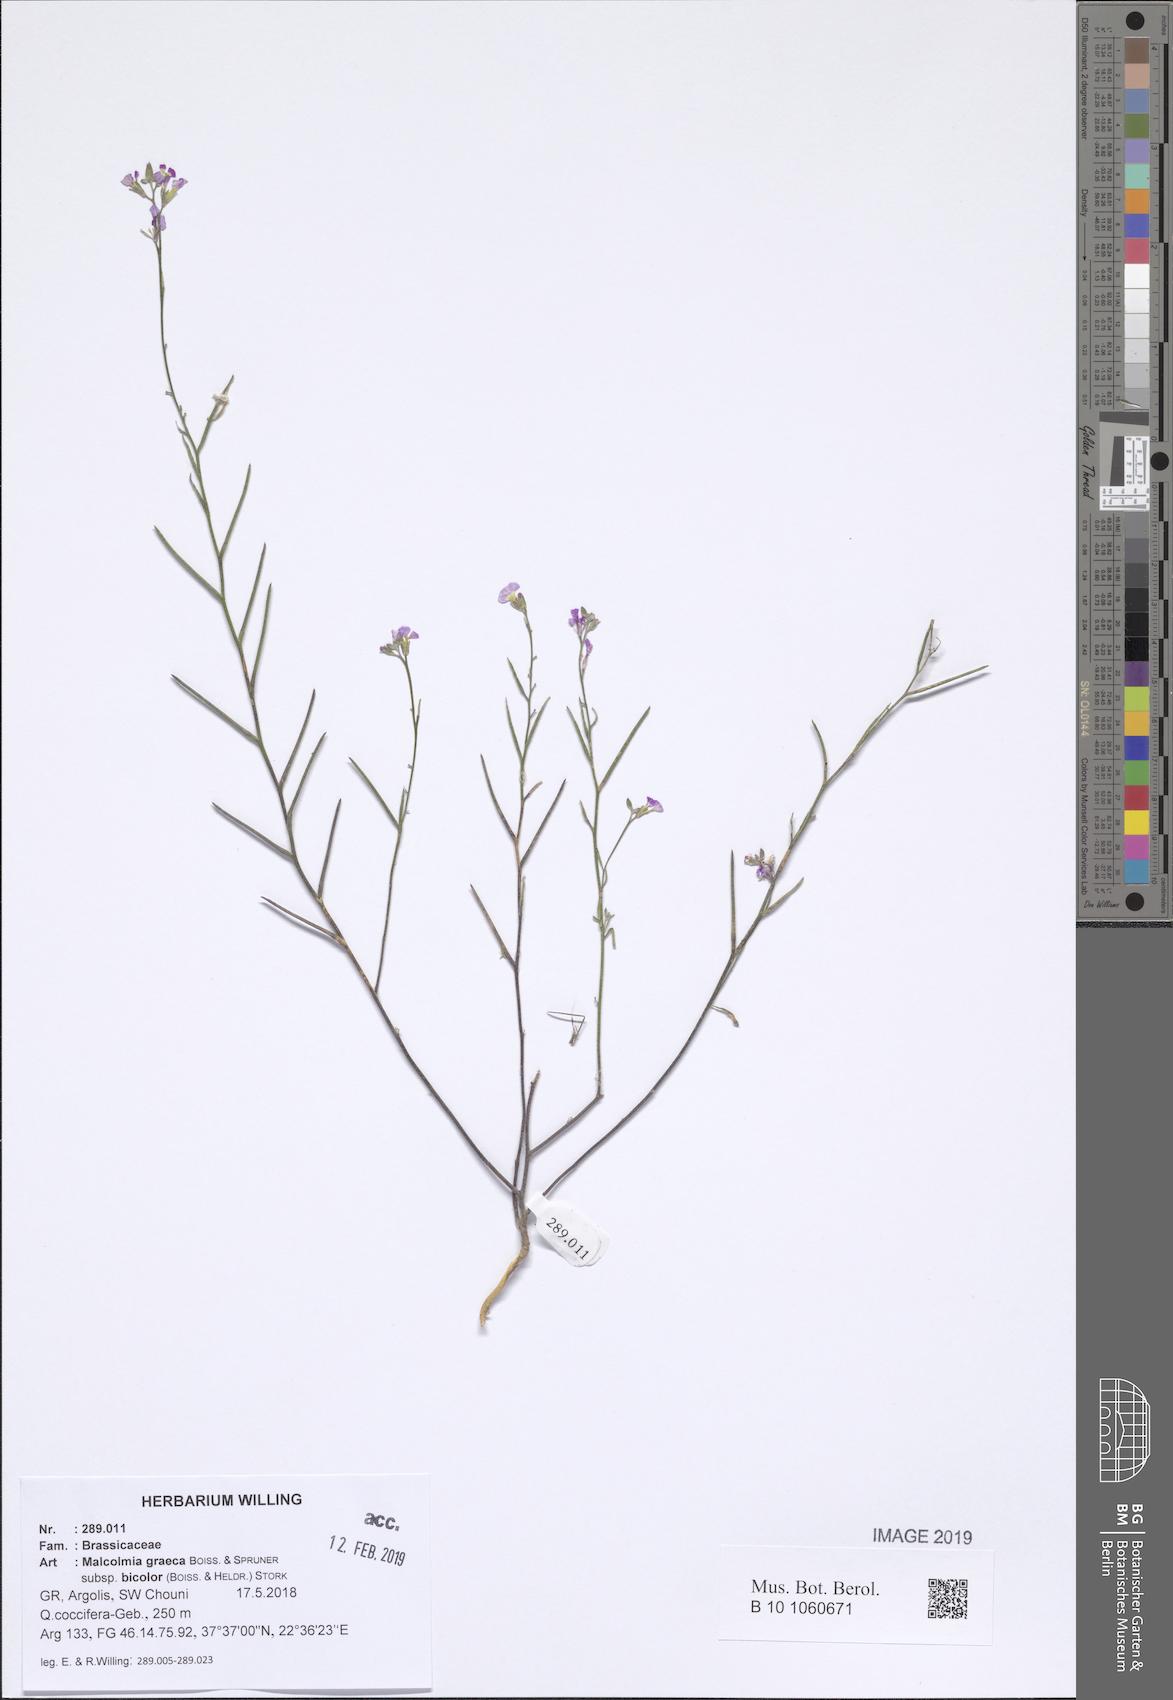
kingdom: Plantae
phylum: Tracheophyta
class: Magnoliopsida
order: Brassicales
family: Brassicaceae
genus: Malcolmia
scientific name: Malcolmia graeca
